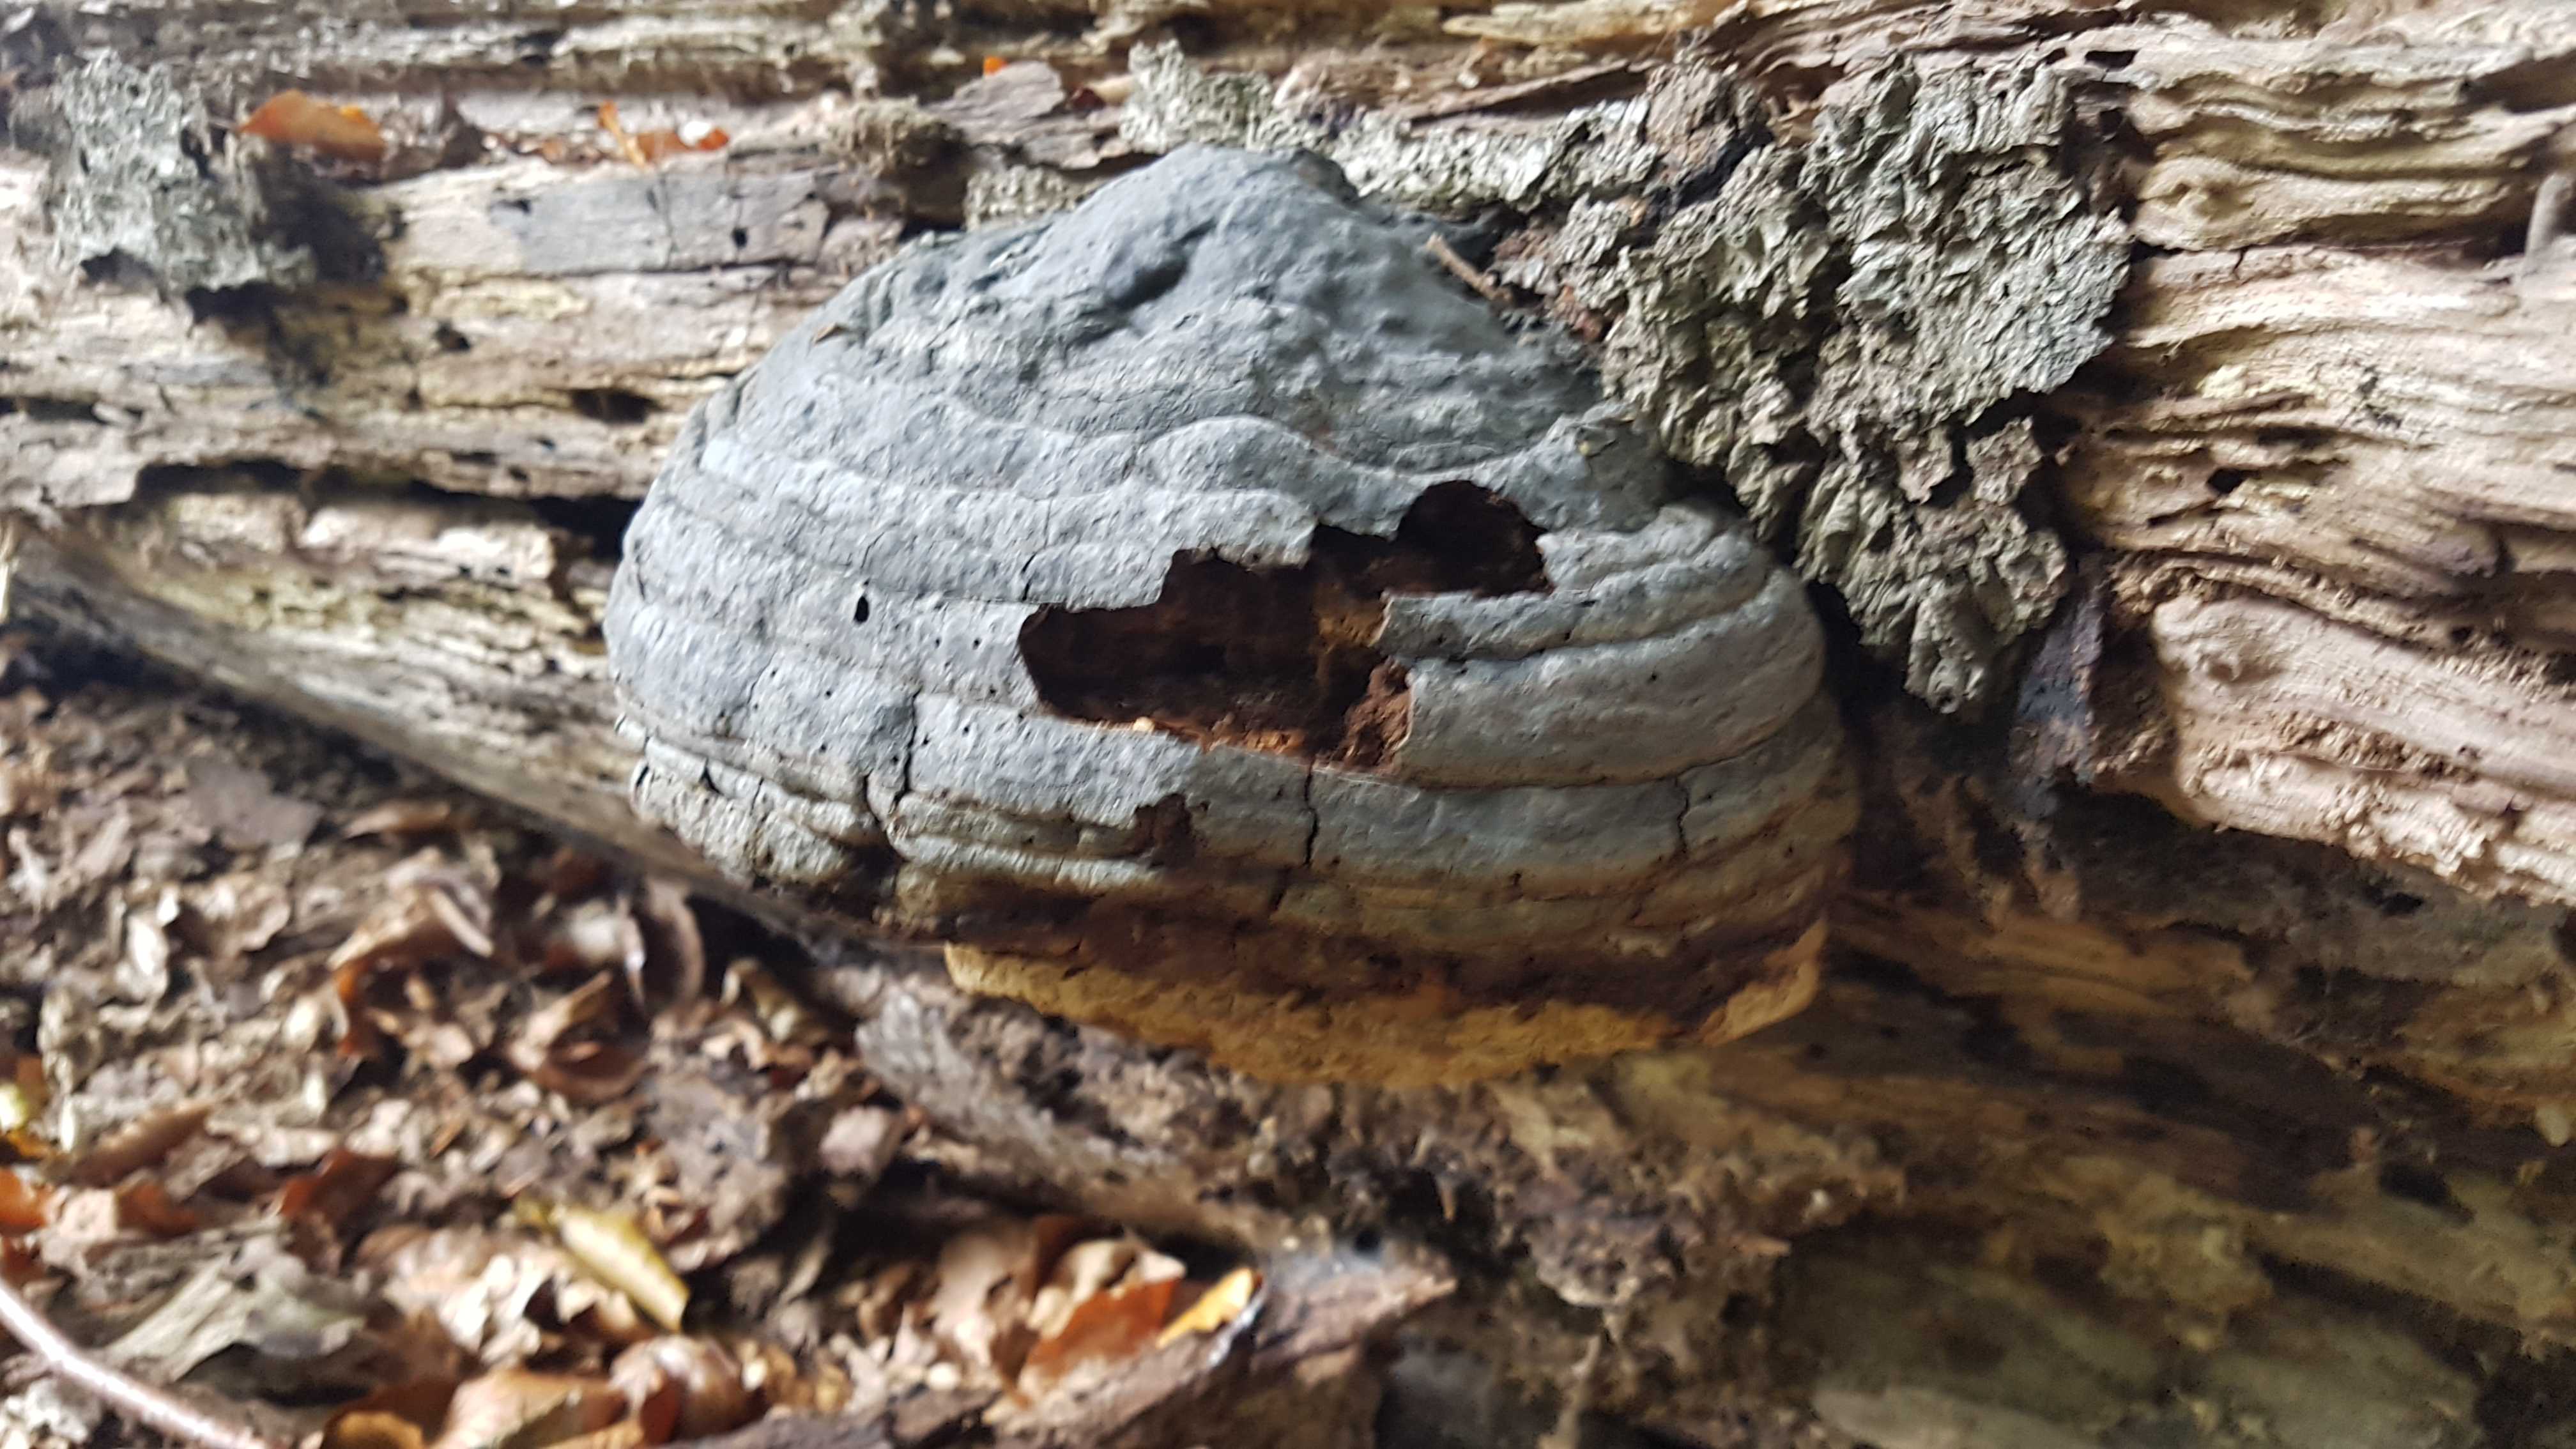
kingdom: Fungi
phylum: Basidiomycota
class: Agaricomycetes
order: Polyporales
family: Polyporaceae
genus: Fomes
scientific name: Fomes fomentarius
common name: tøndersvamp
